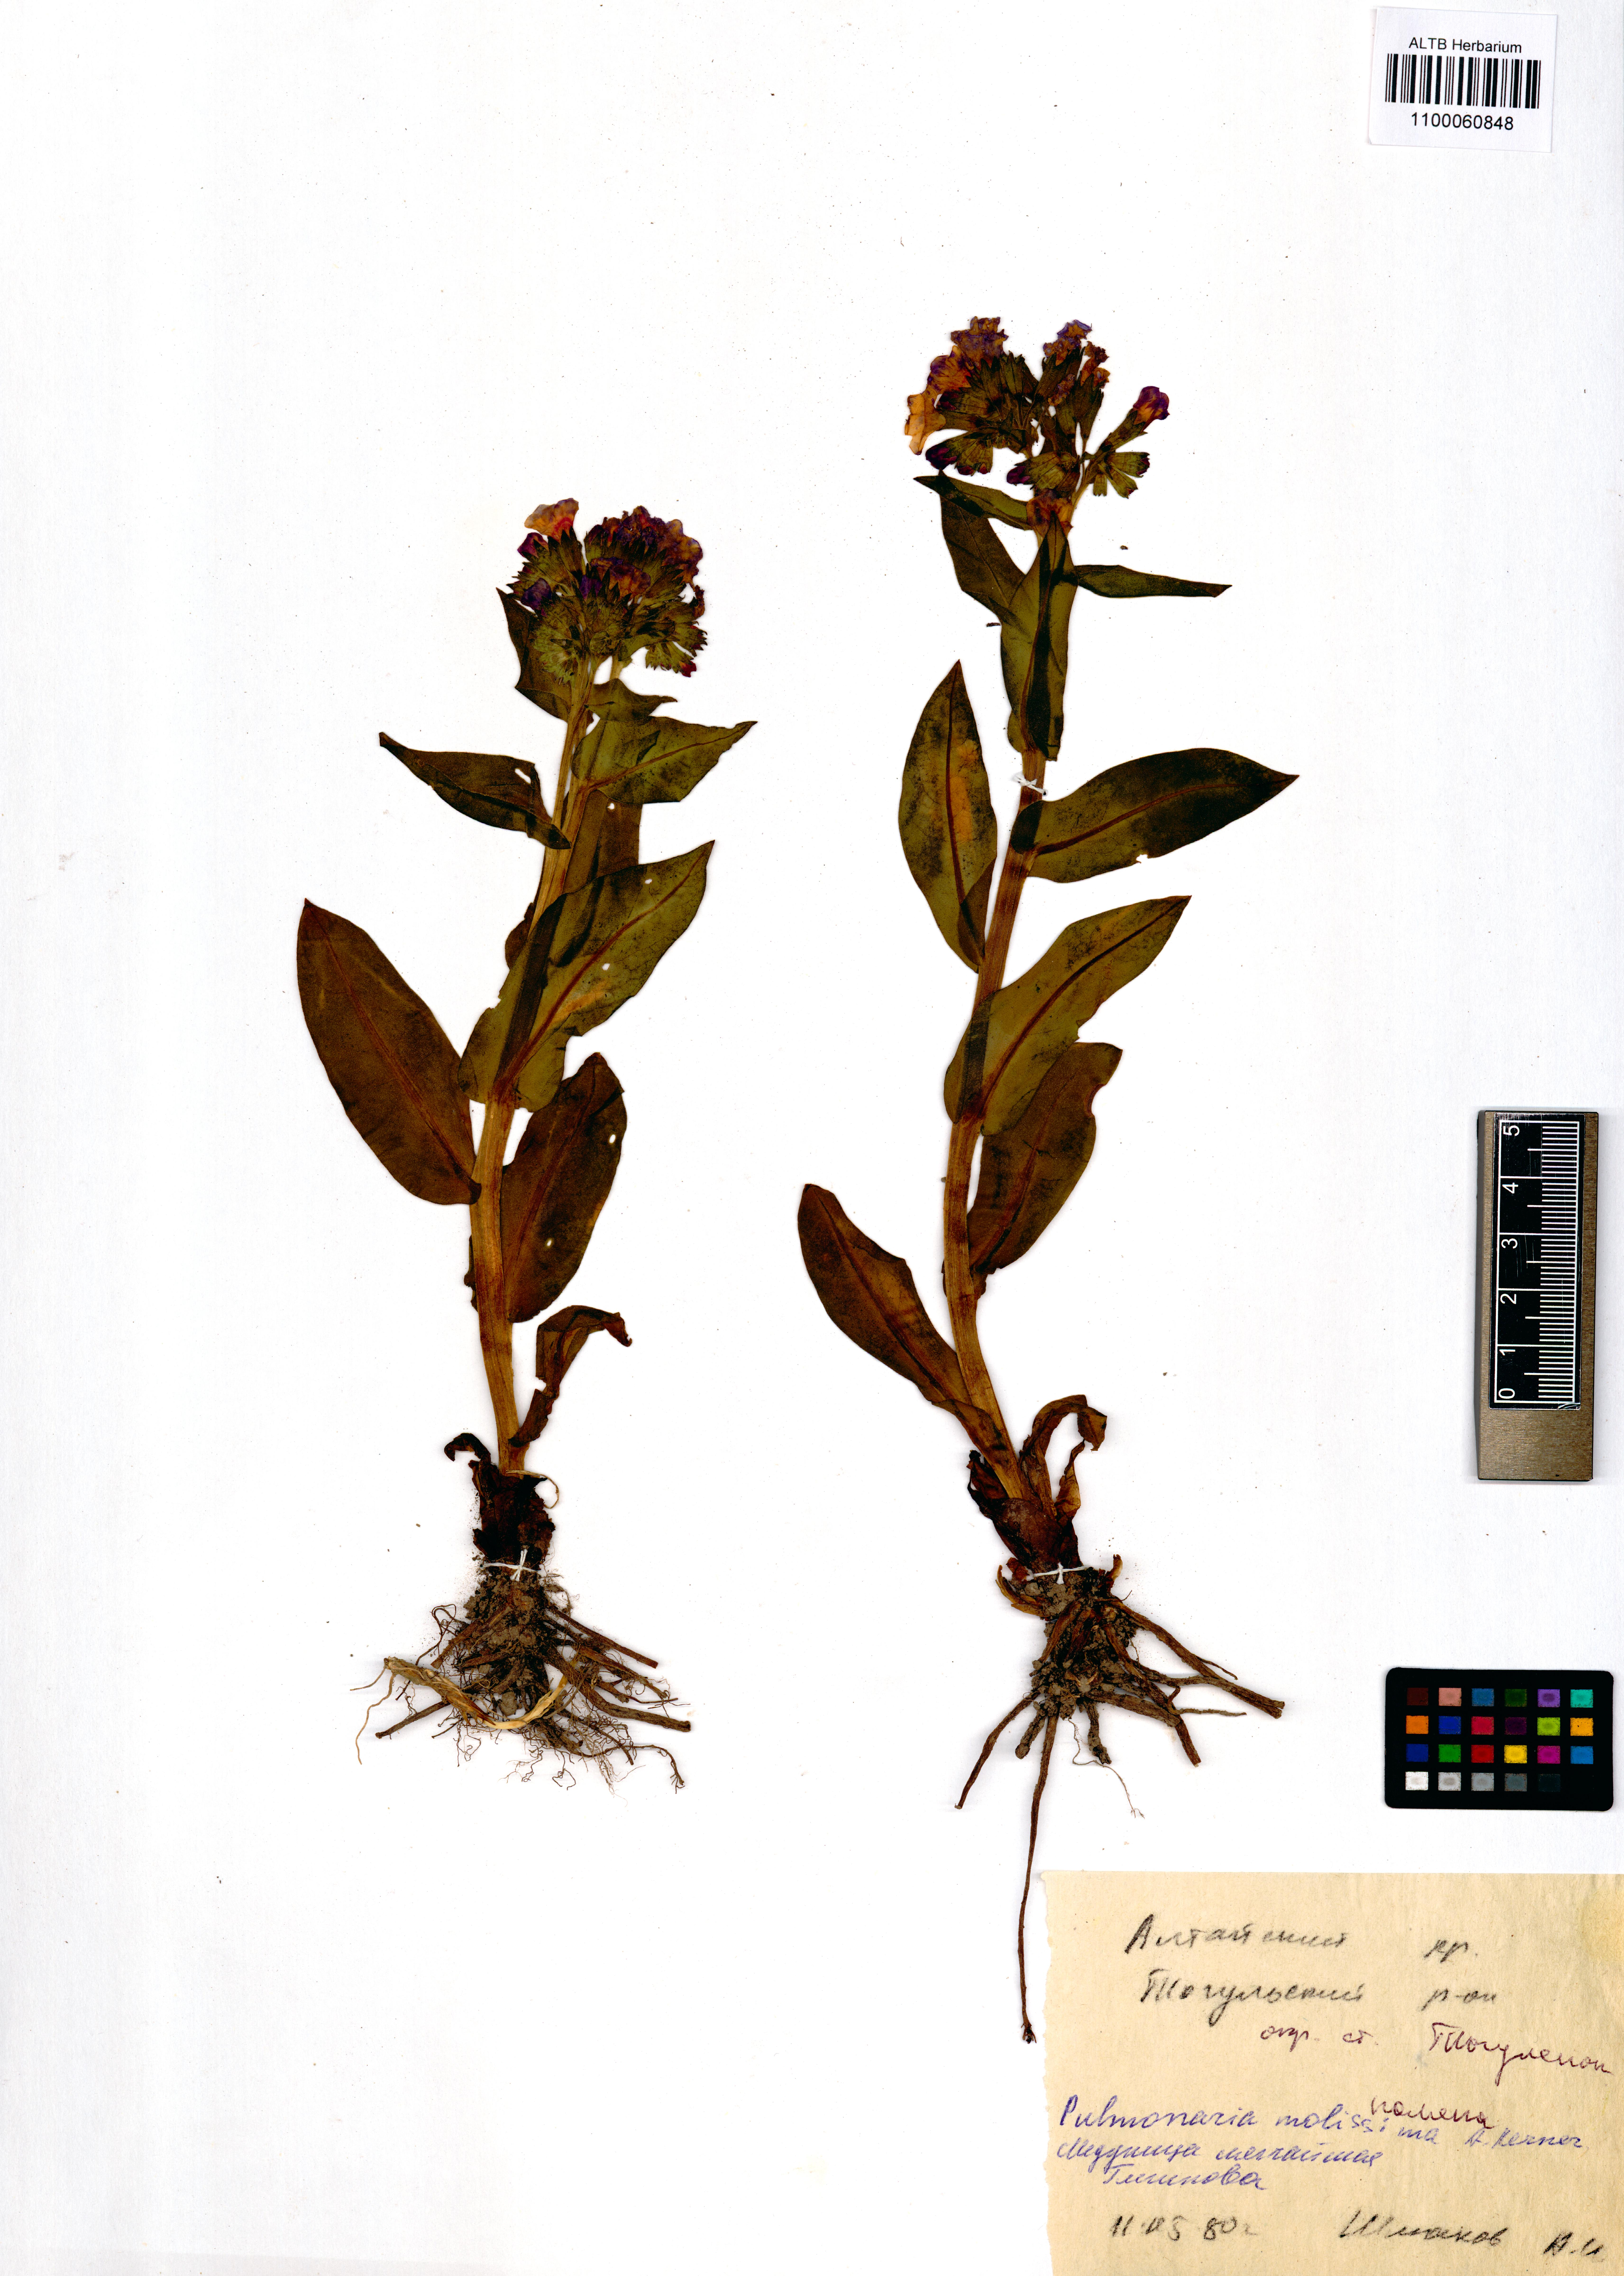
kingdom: Plantae
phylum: Tracheophyta
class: Magnoliopsida
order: Boraginales
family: Boraginaceae
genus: Pulmonaria
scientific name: Pulmonaria mollis
